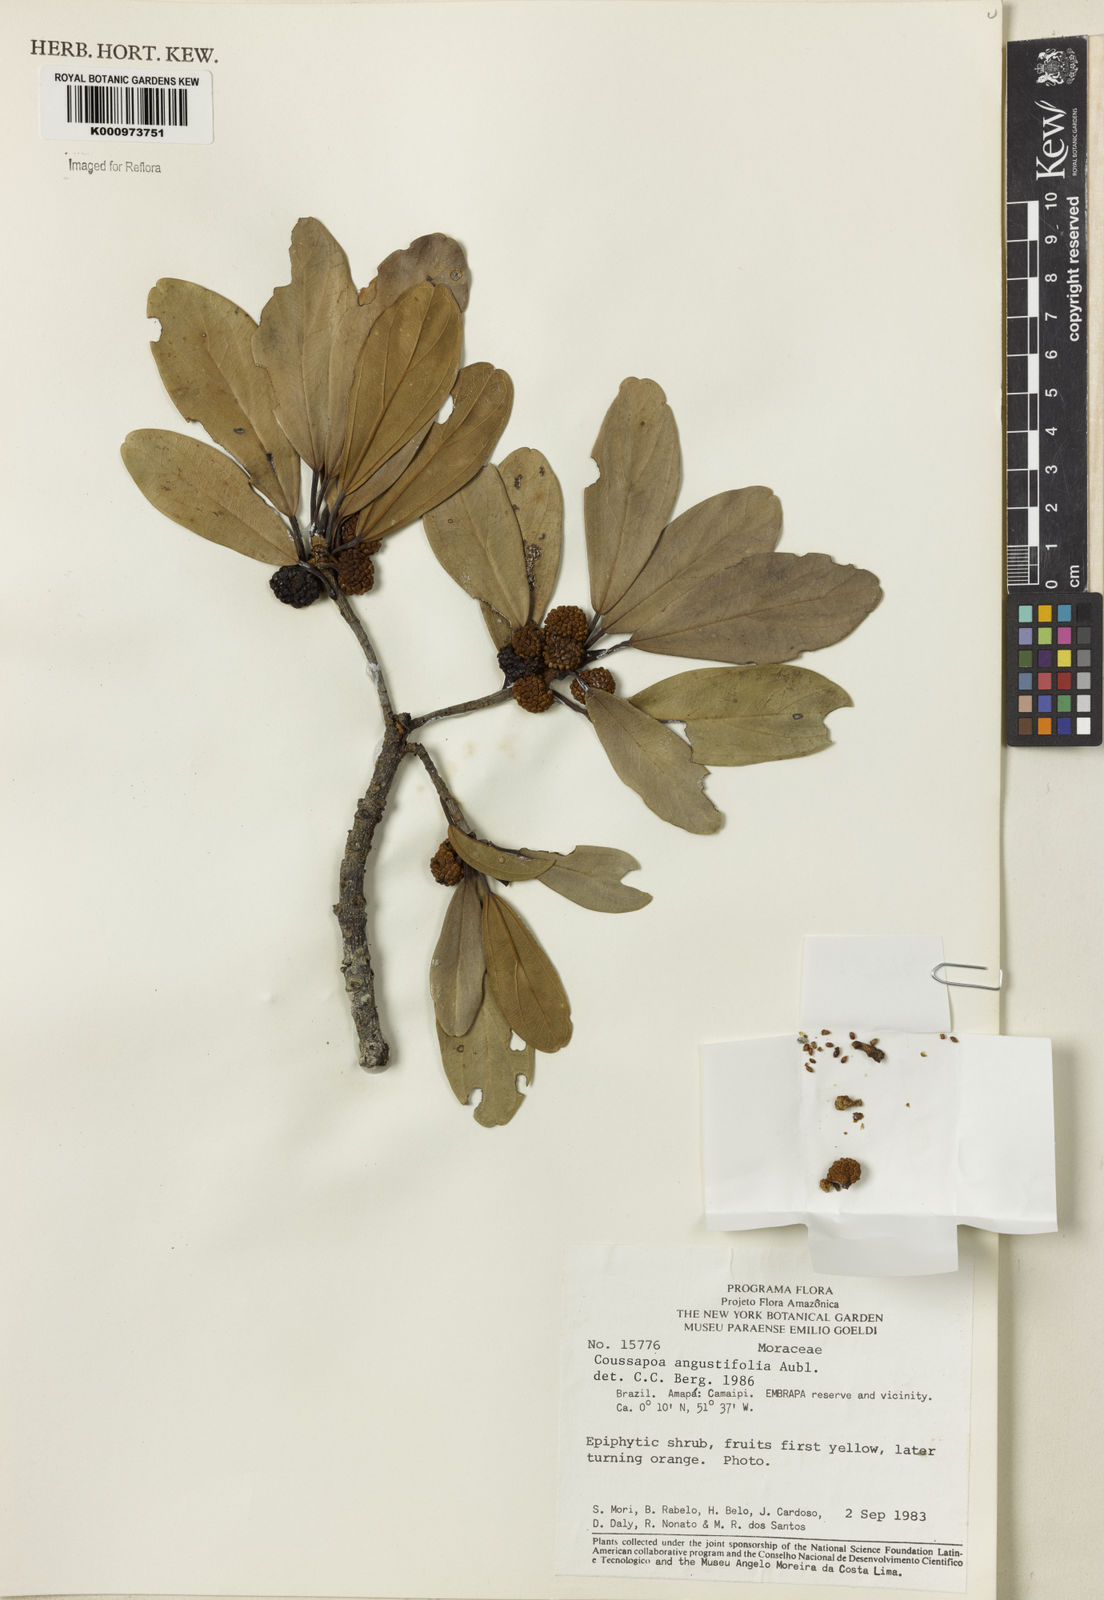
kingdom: Plantae
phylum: Tracheophyta
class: Magnoliopsida
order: Rosales
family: Urticaceae
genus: Coussapoa
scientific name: Coussapoa
